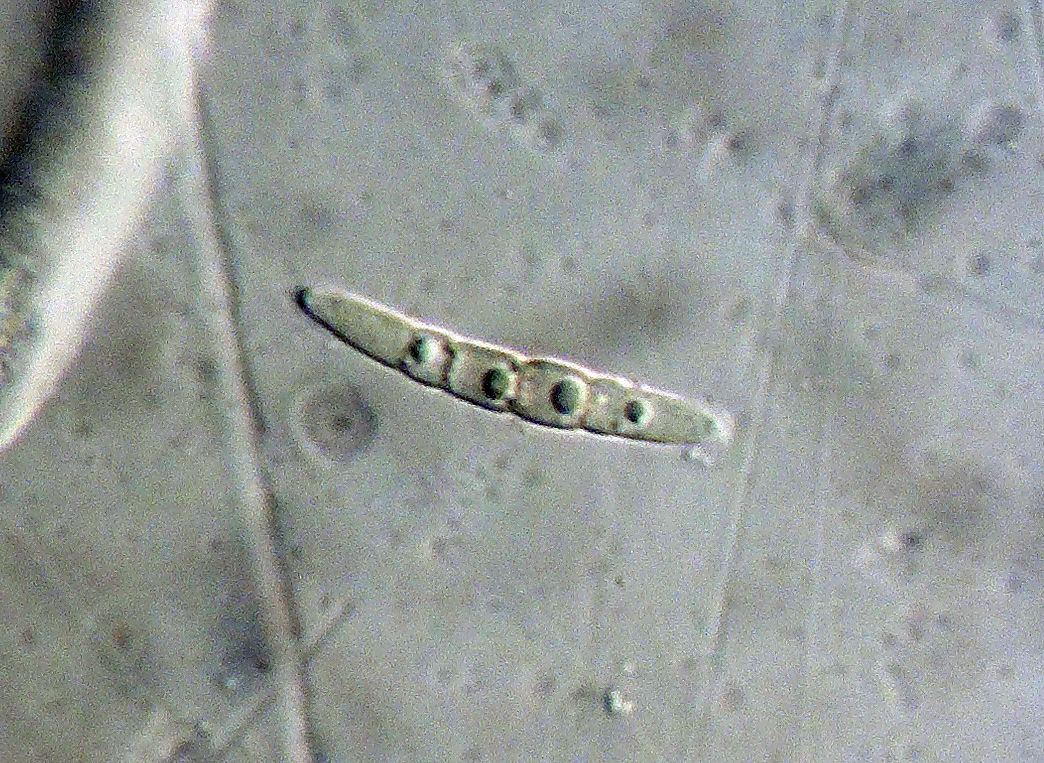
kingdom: Fungi
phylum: Ascomycota
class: Dothideomycetes
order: Pleosporales
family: Phaeosphaeriaceae
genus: Phaeosphaeria
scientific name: Phaeosphaeria sowerbyi
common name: kål-kulkegle
